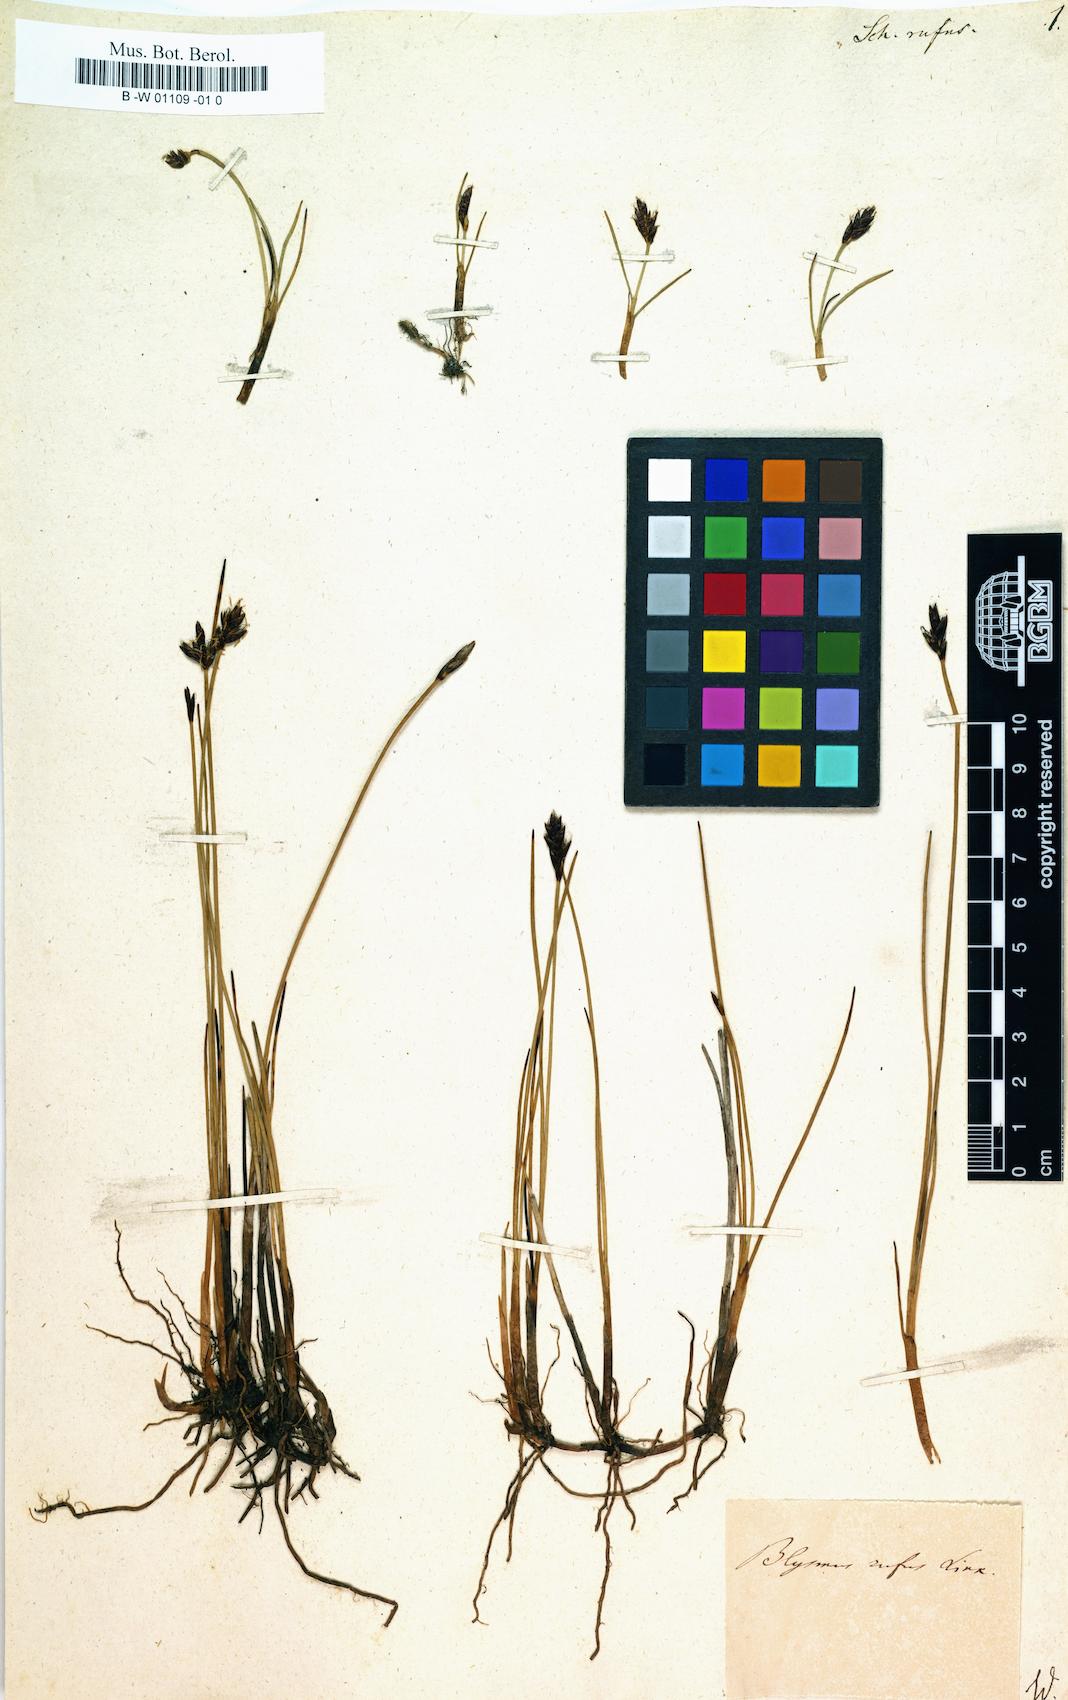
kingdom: Plantae
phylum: Tracheophyta
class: Liliopsida
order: Poales
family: Cyperaceae
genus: Blysmus
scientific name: Blysmus rufus
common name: Saltmarsh flat-sedge
